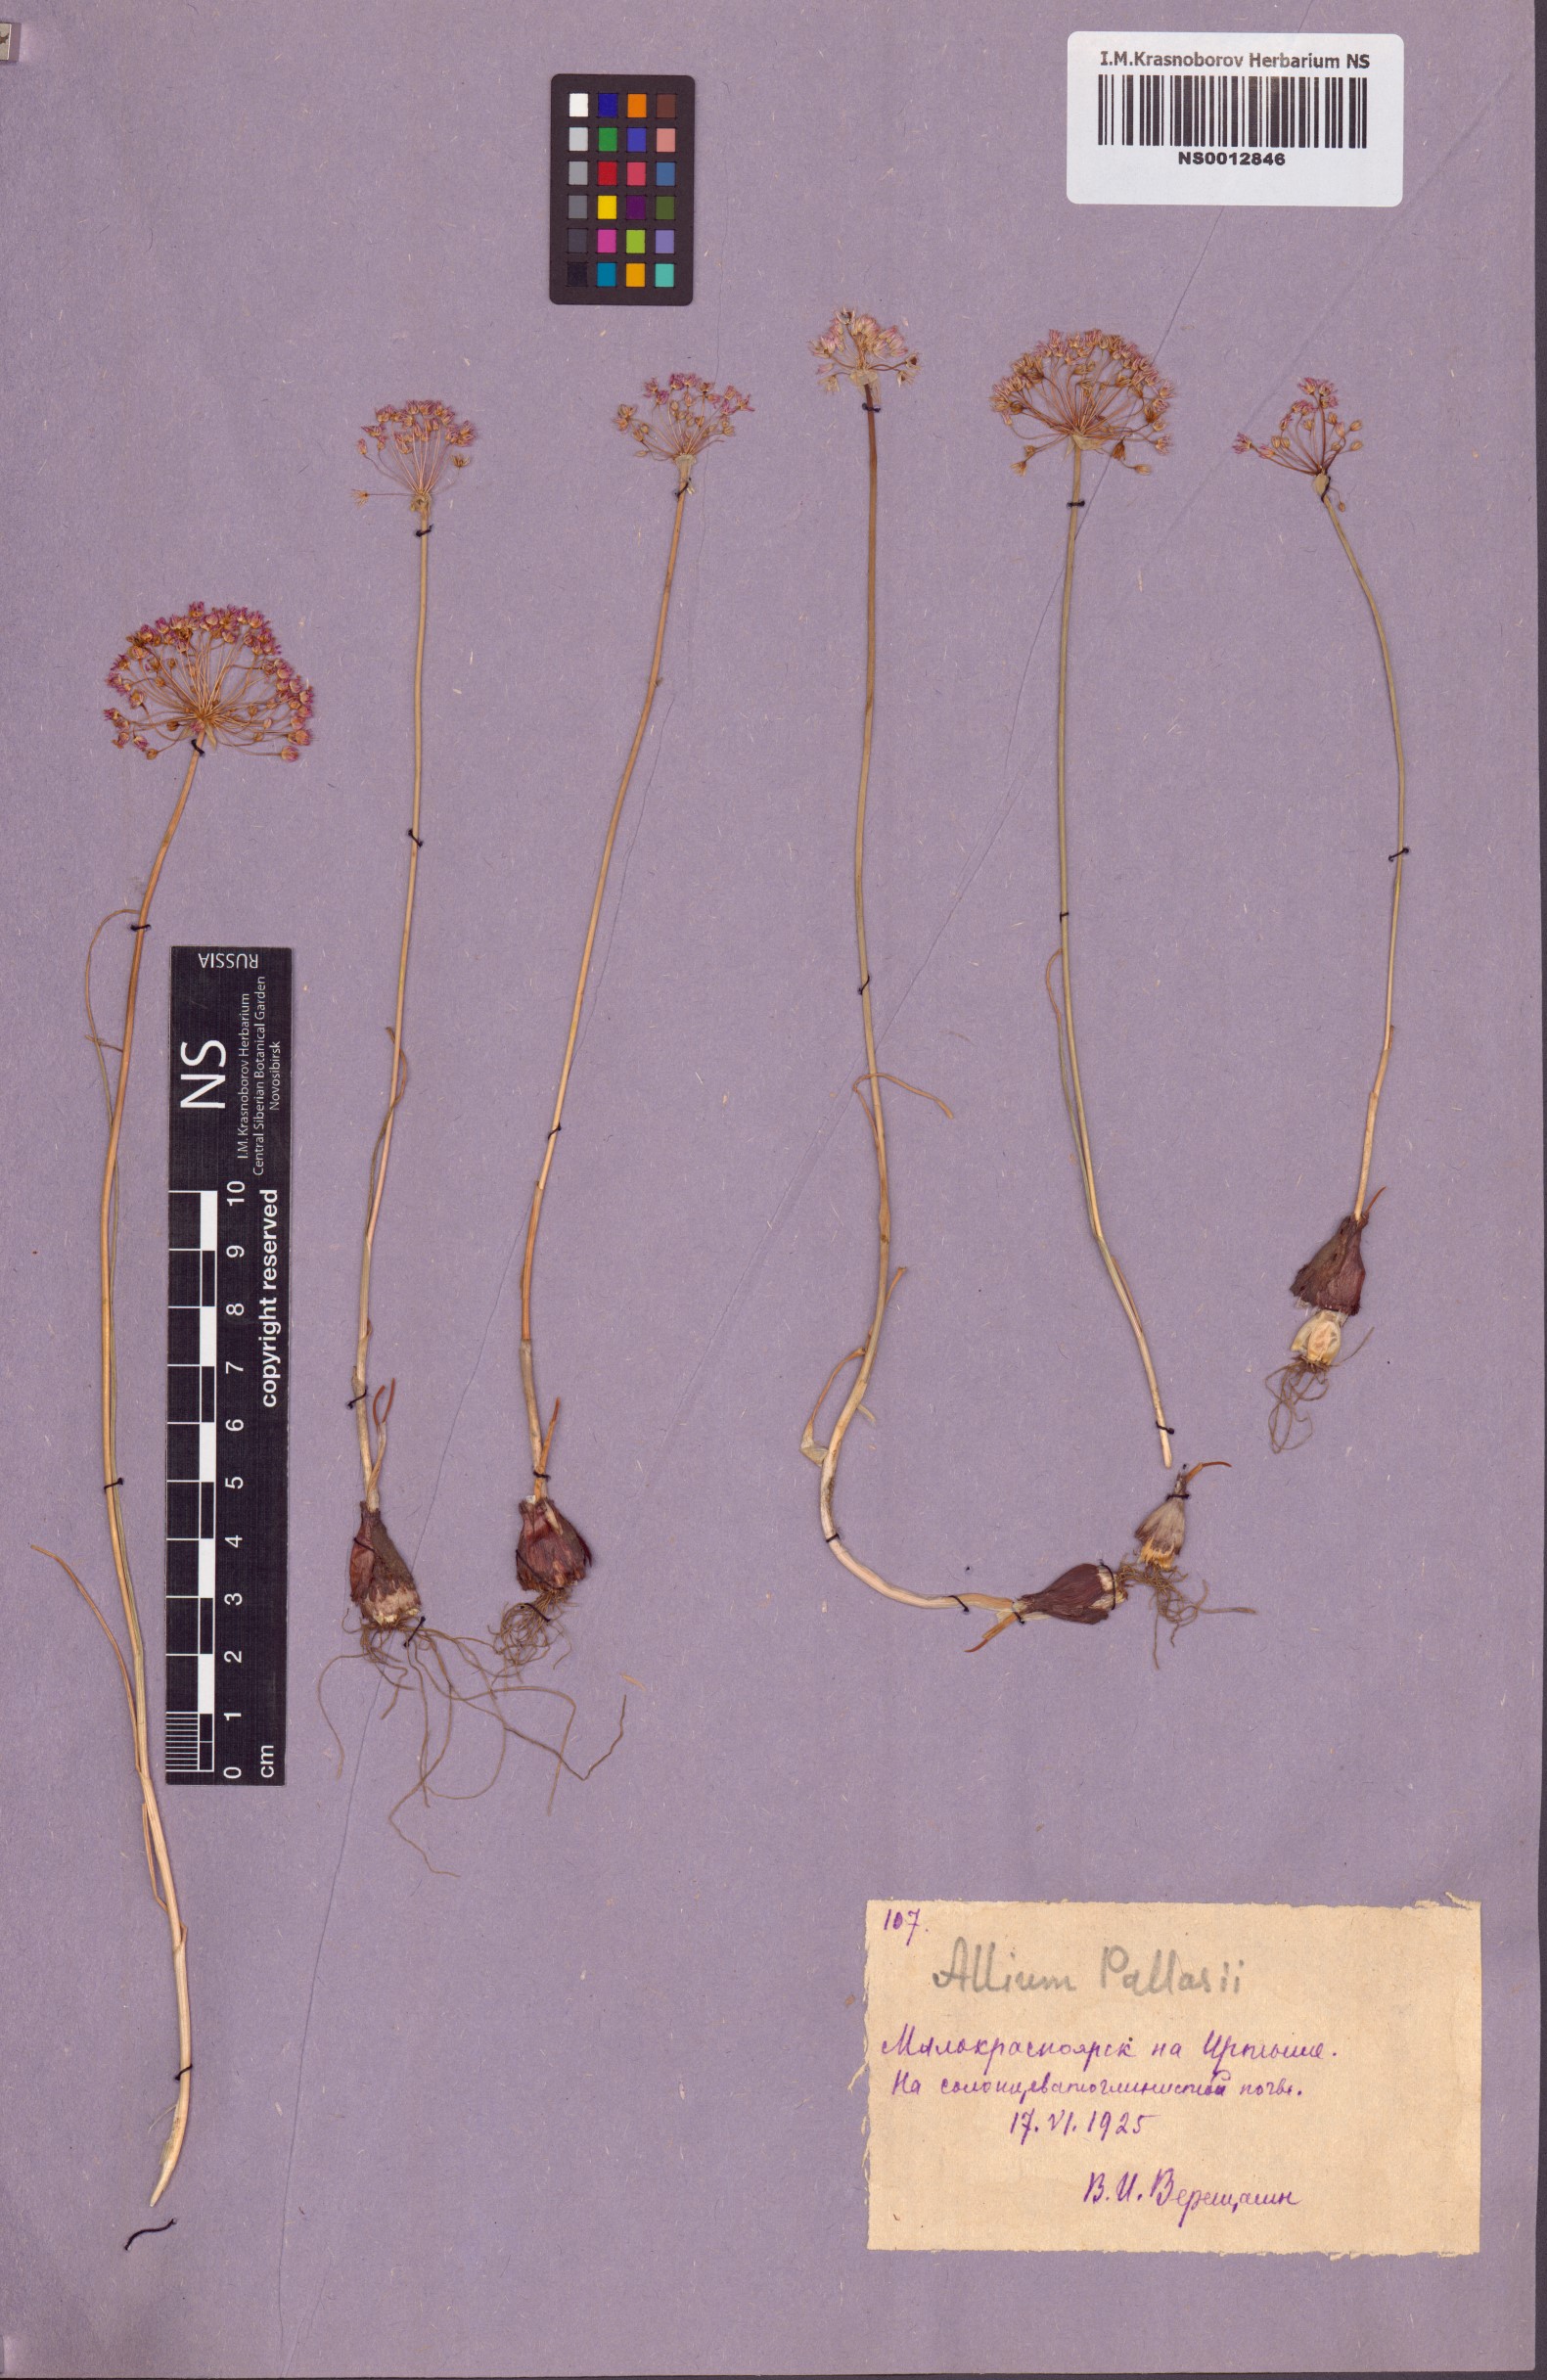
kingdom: Plantae
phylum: Tracheophyta
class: Liliopsida
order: Asparagales
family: Amaryllidaceae
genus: Allium
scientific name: Allium pallasii
